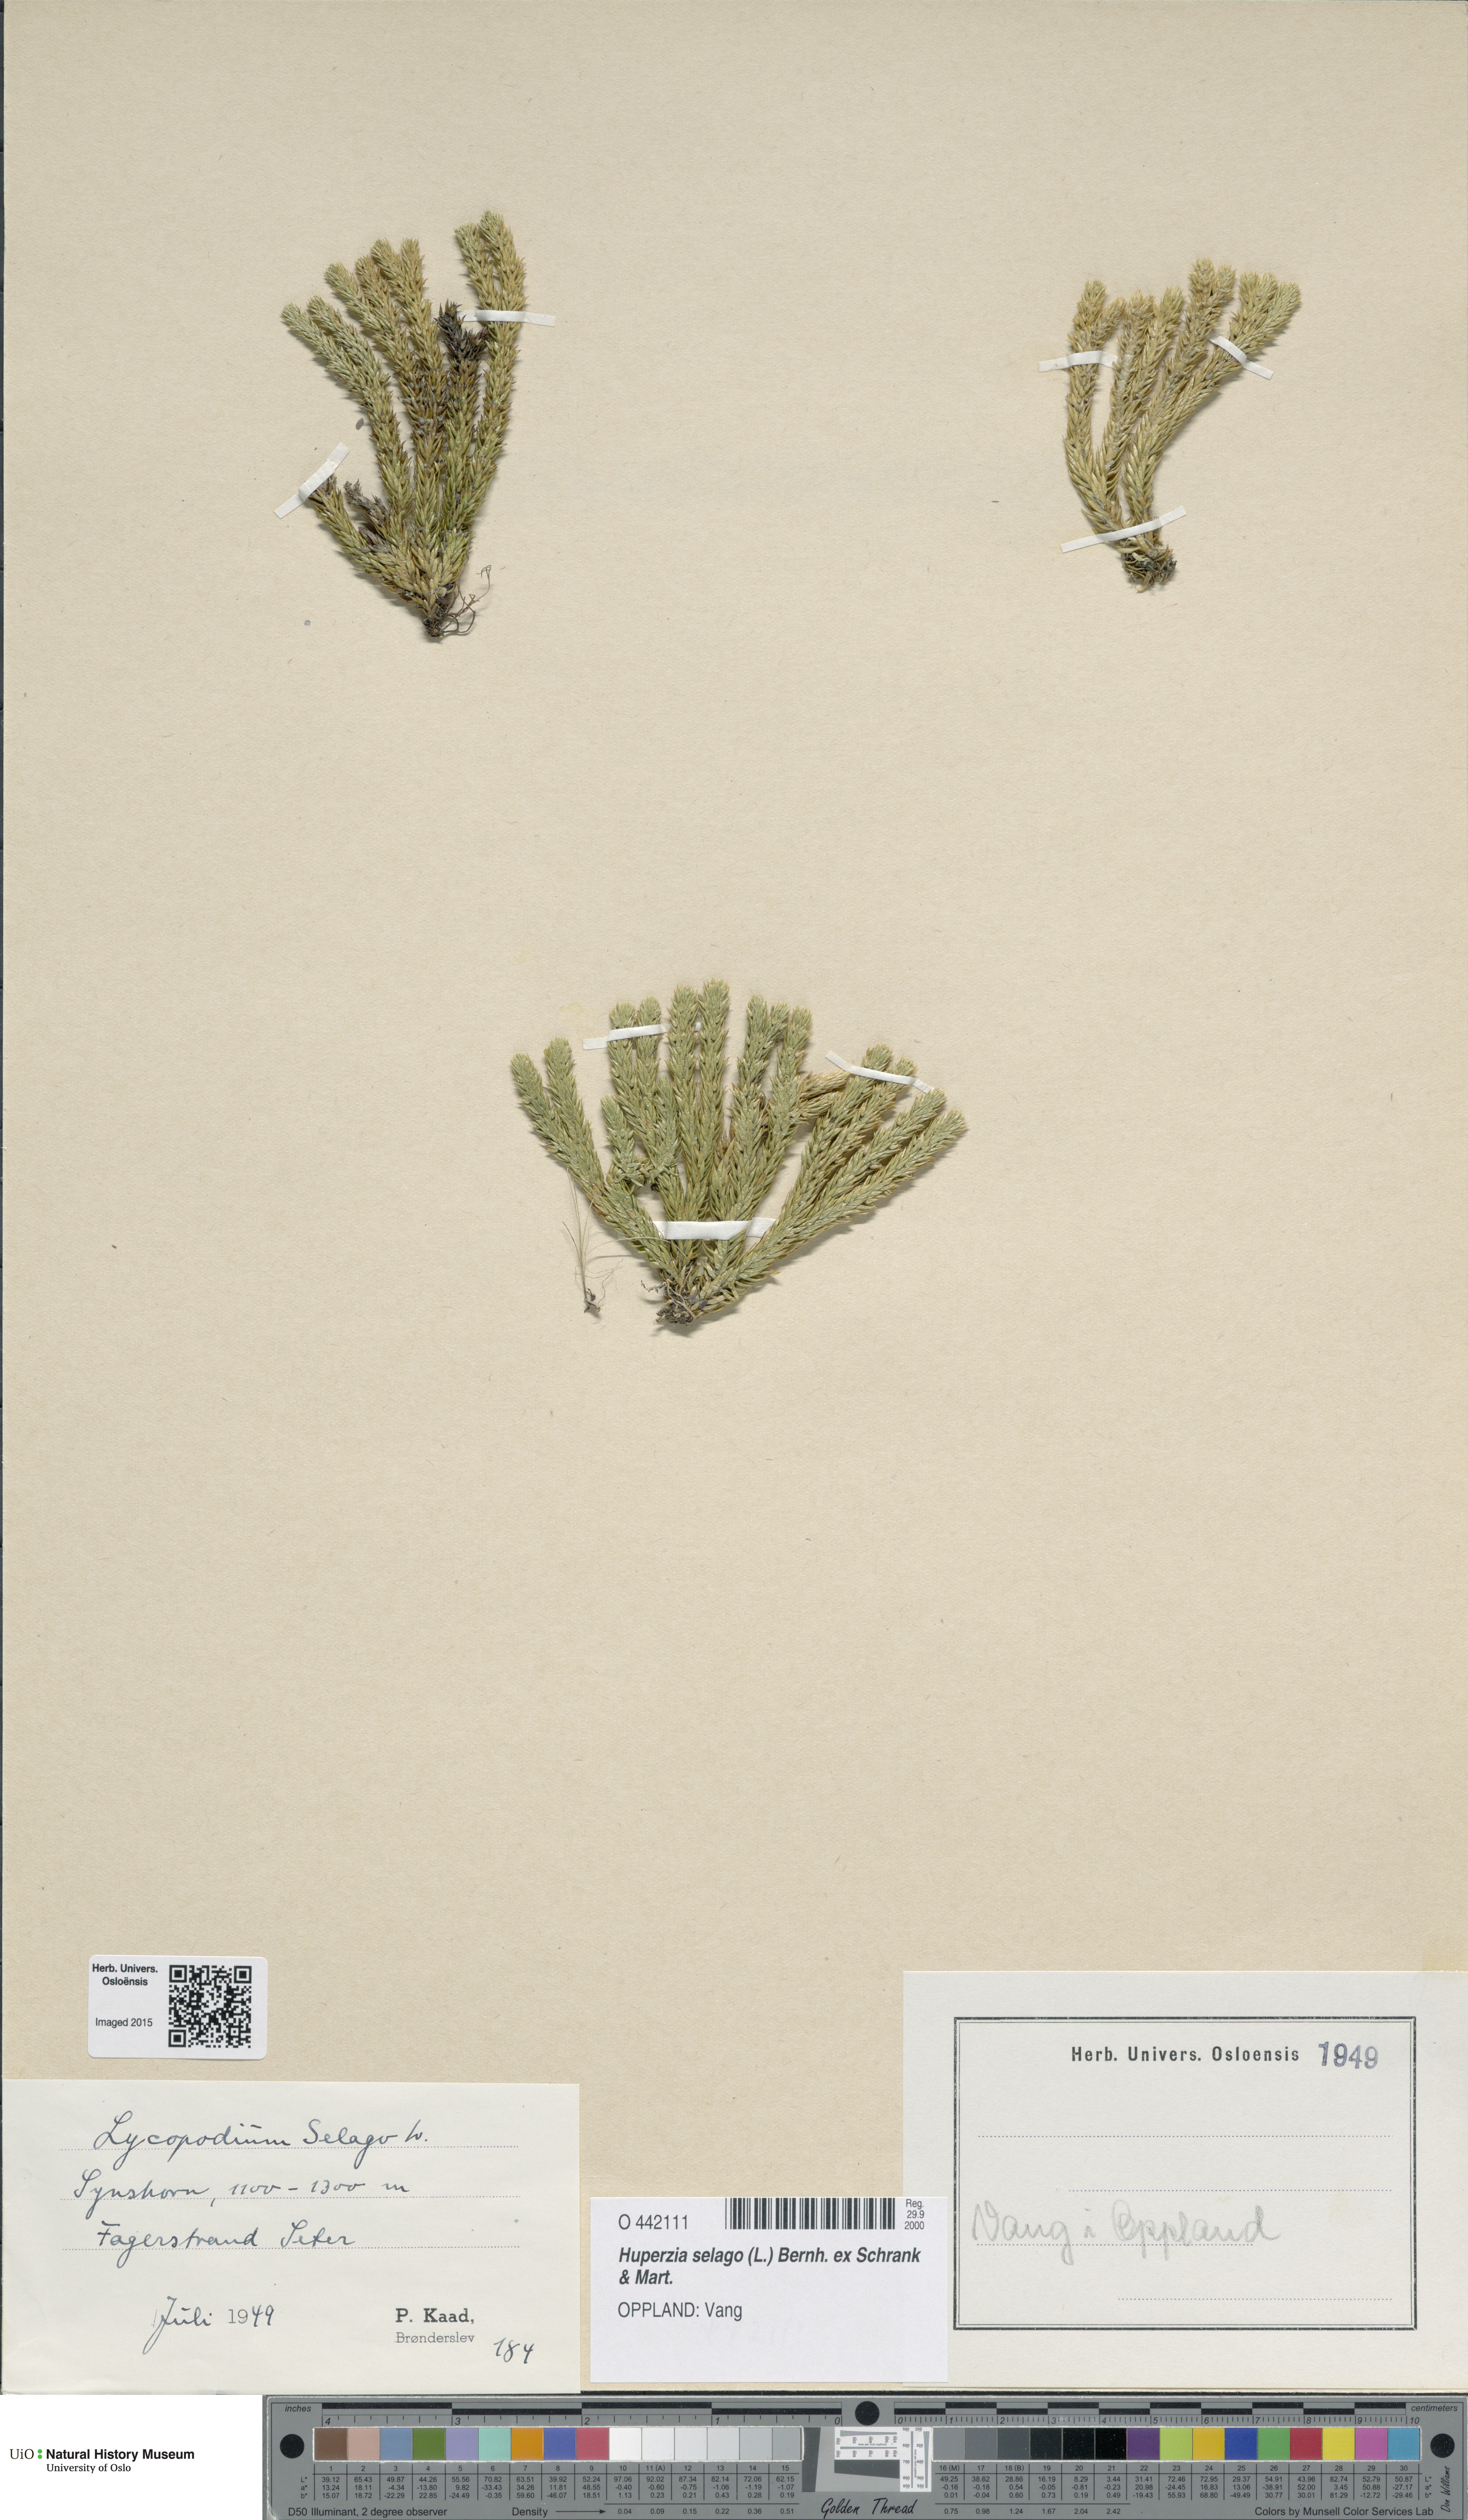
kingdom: Plantae
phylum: Tracheophyta
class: Lycopodiopsida
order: Lycopodiales
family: Lycopodiaceae
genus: Huperzia
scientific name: Huperzia selago
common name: Northern firmoss
